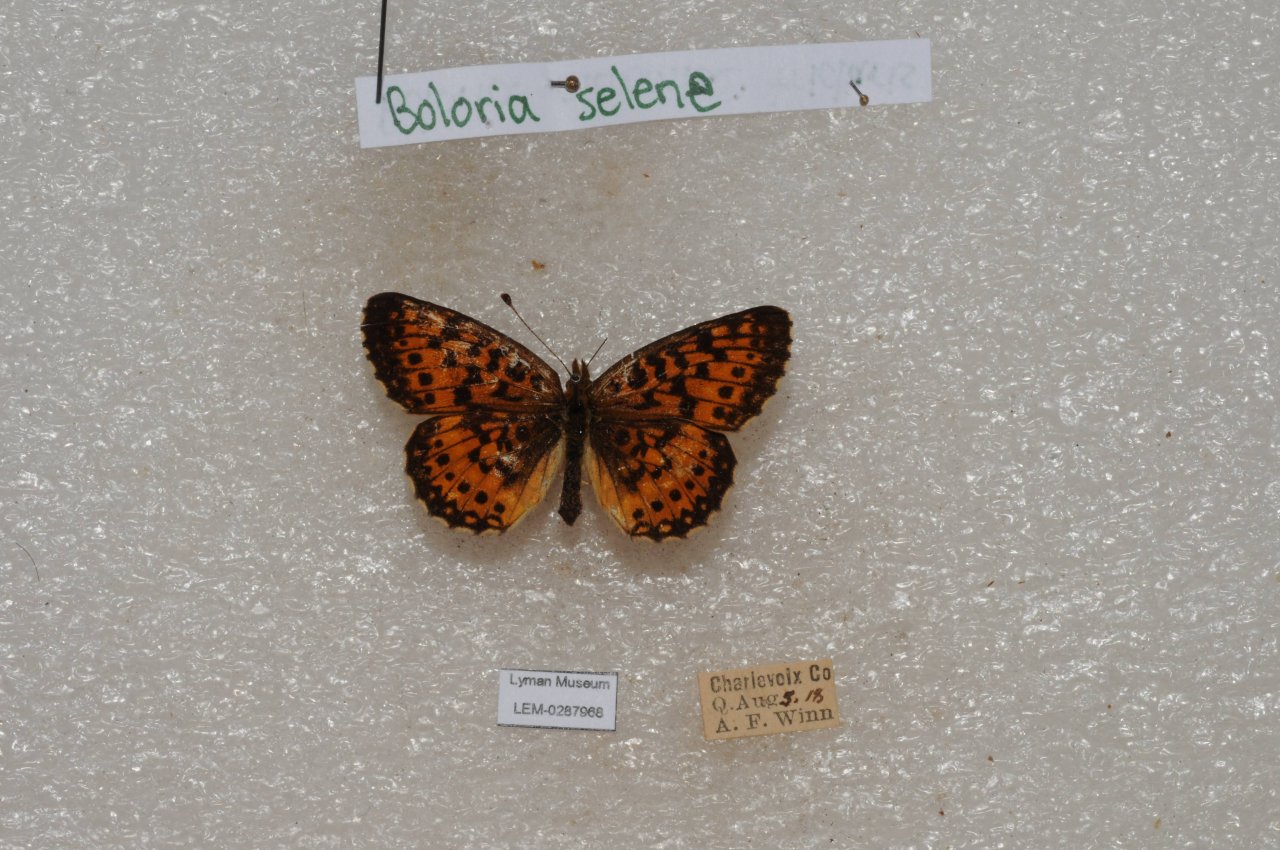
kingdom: Animalia
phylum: Arthropoda
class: Insecta
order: Lepidoptera
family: Nymphalidae
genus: Boloria
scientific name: Boloria selene
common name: Silver-bordered Fritillary
